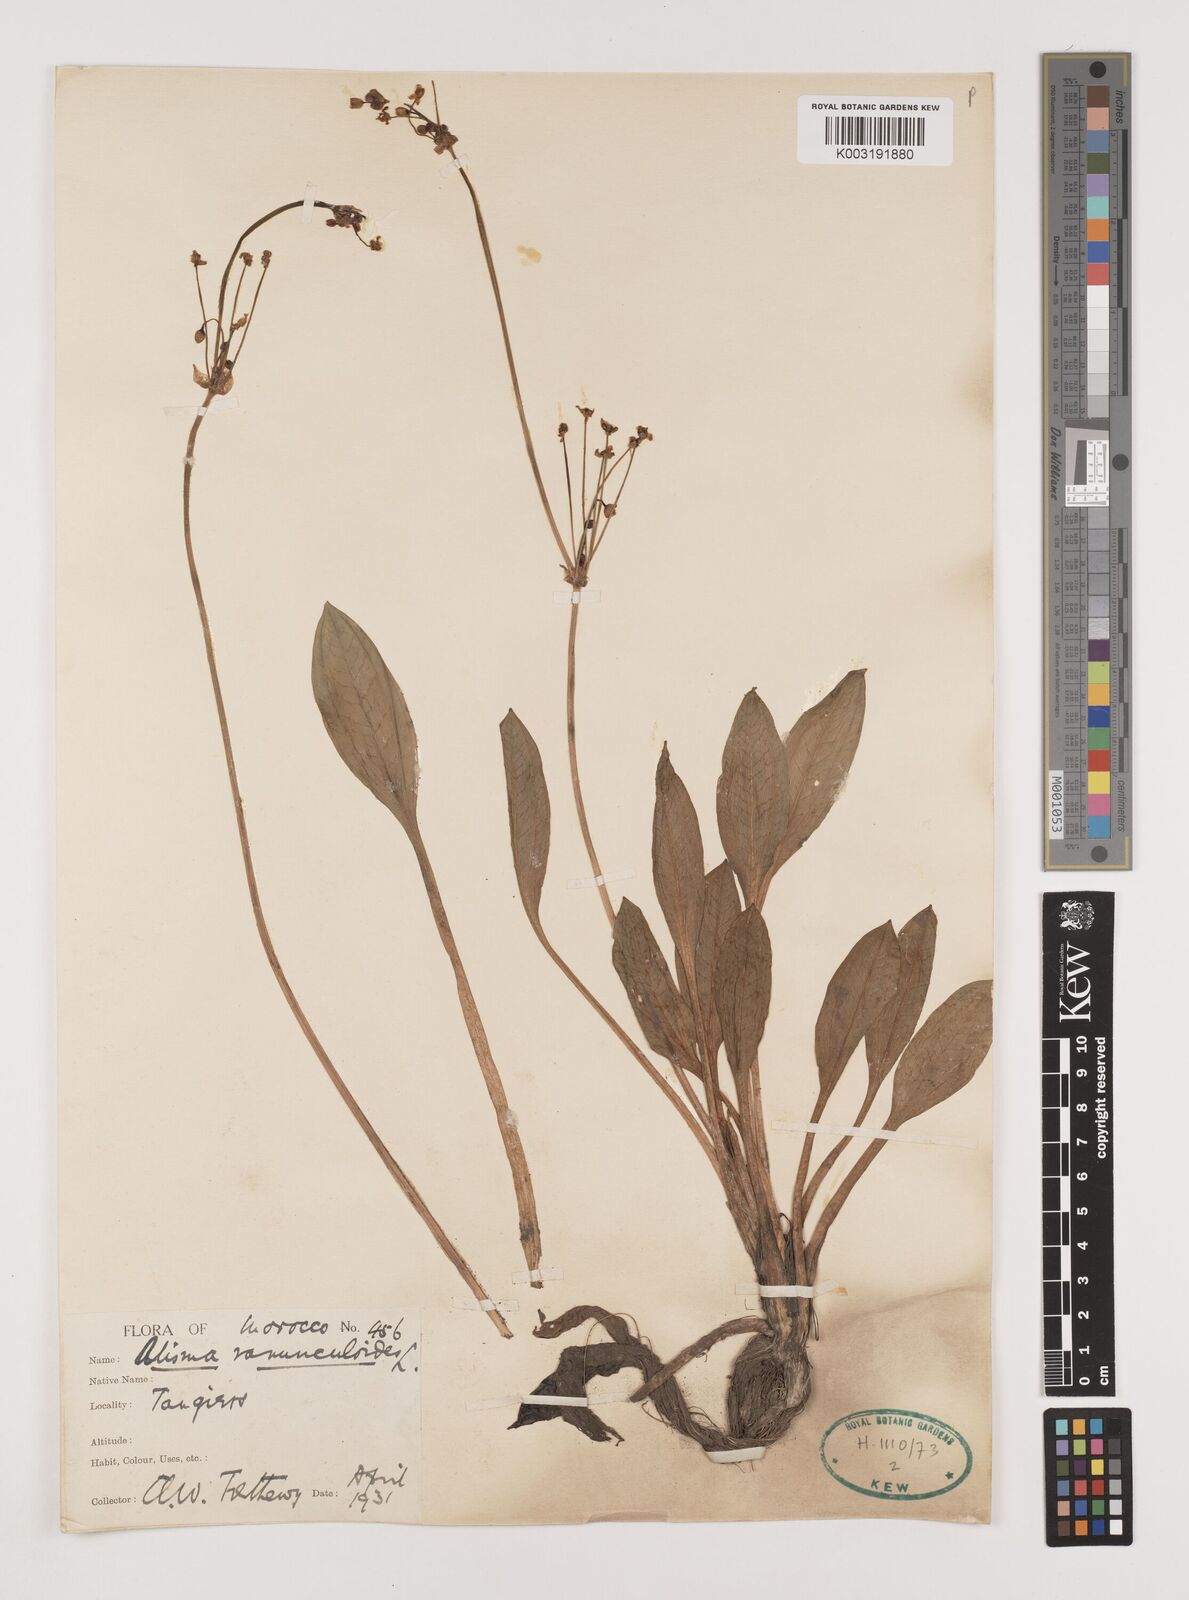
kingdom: Plantae
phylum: Tracheophyta
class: Liliopsida
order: Alismatales
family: Alismataceae
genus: Baldellia
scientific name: Baldellia ranunculoides
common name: Lesser water-plantain
